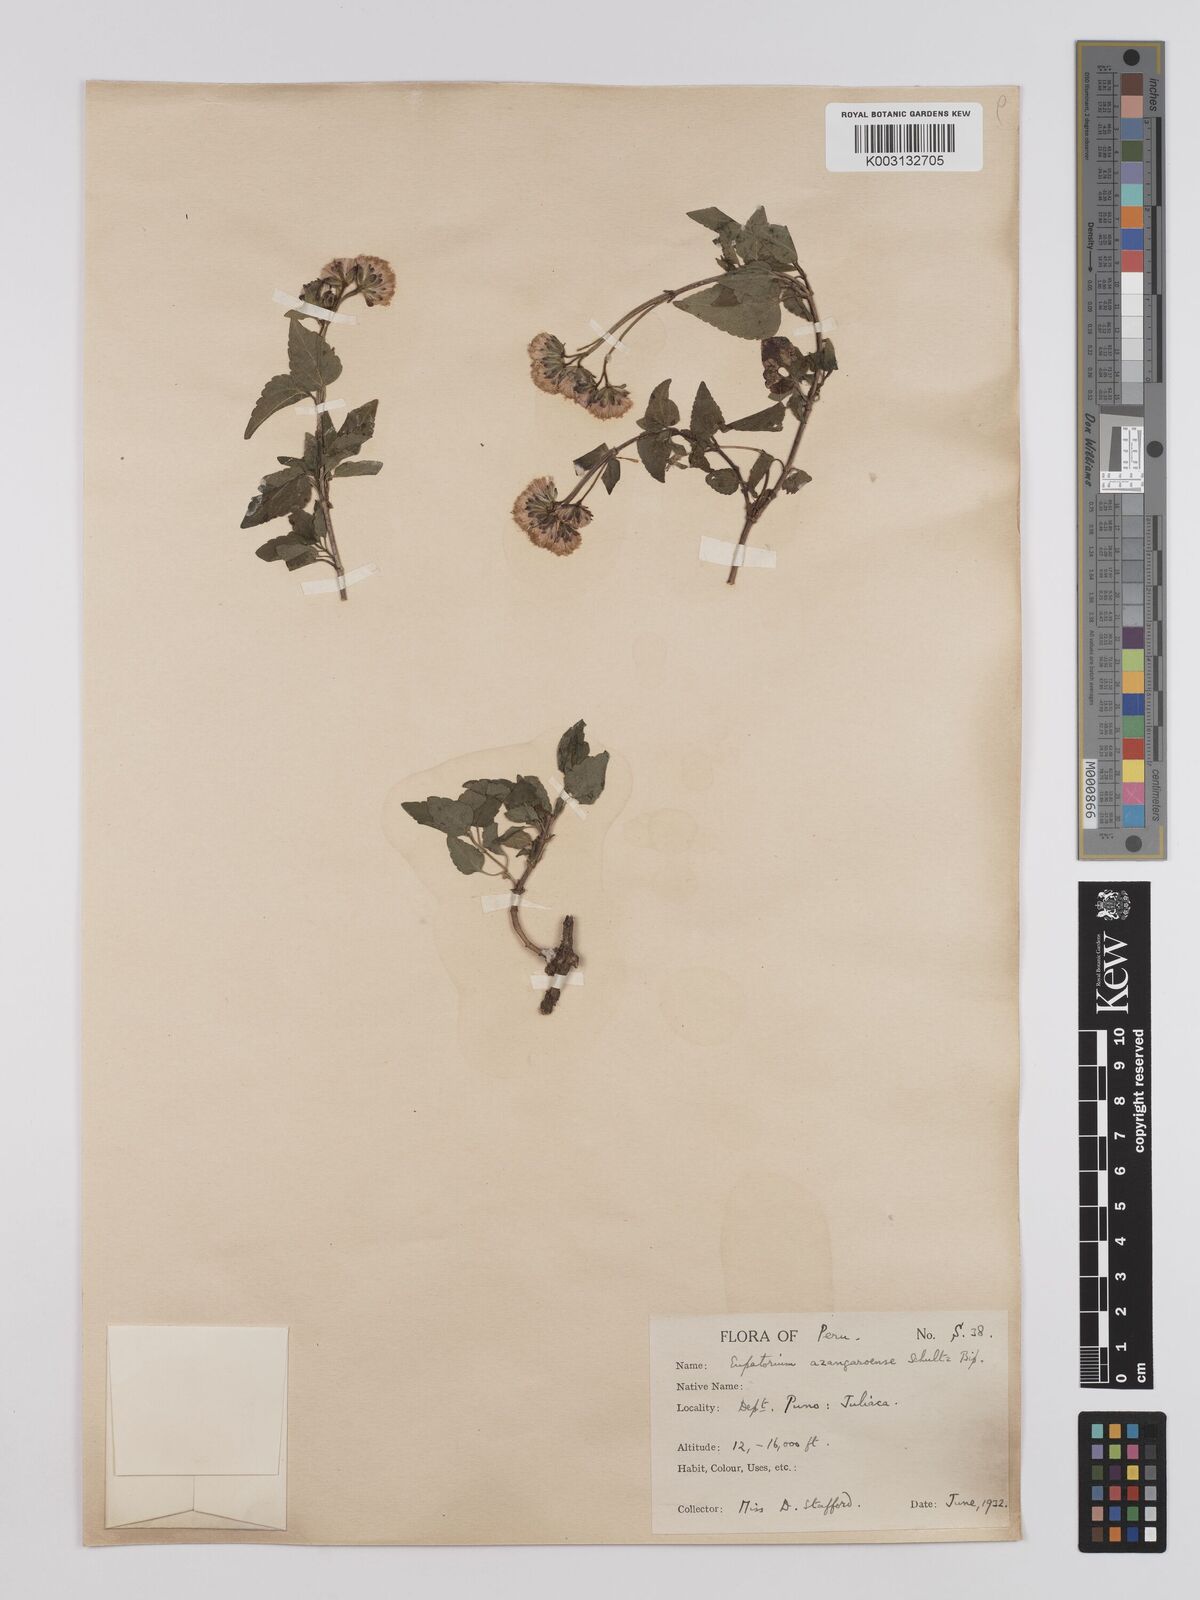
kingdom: Plantae
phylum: Tracheophyta
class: Magnoliopsida
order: Asterales
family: Asteraceae
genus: Ageratina
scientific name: Ageratina glechonophylla
